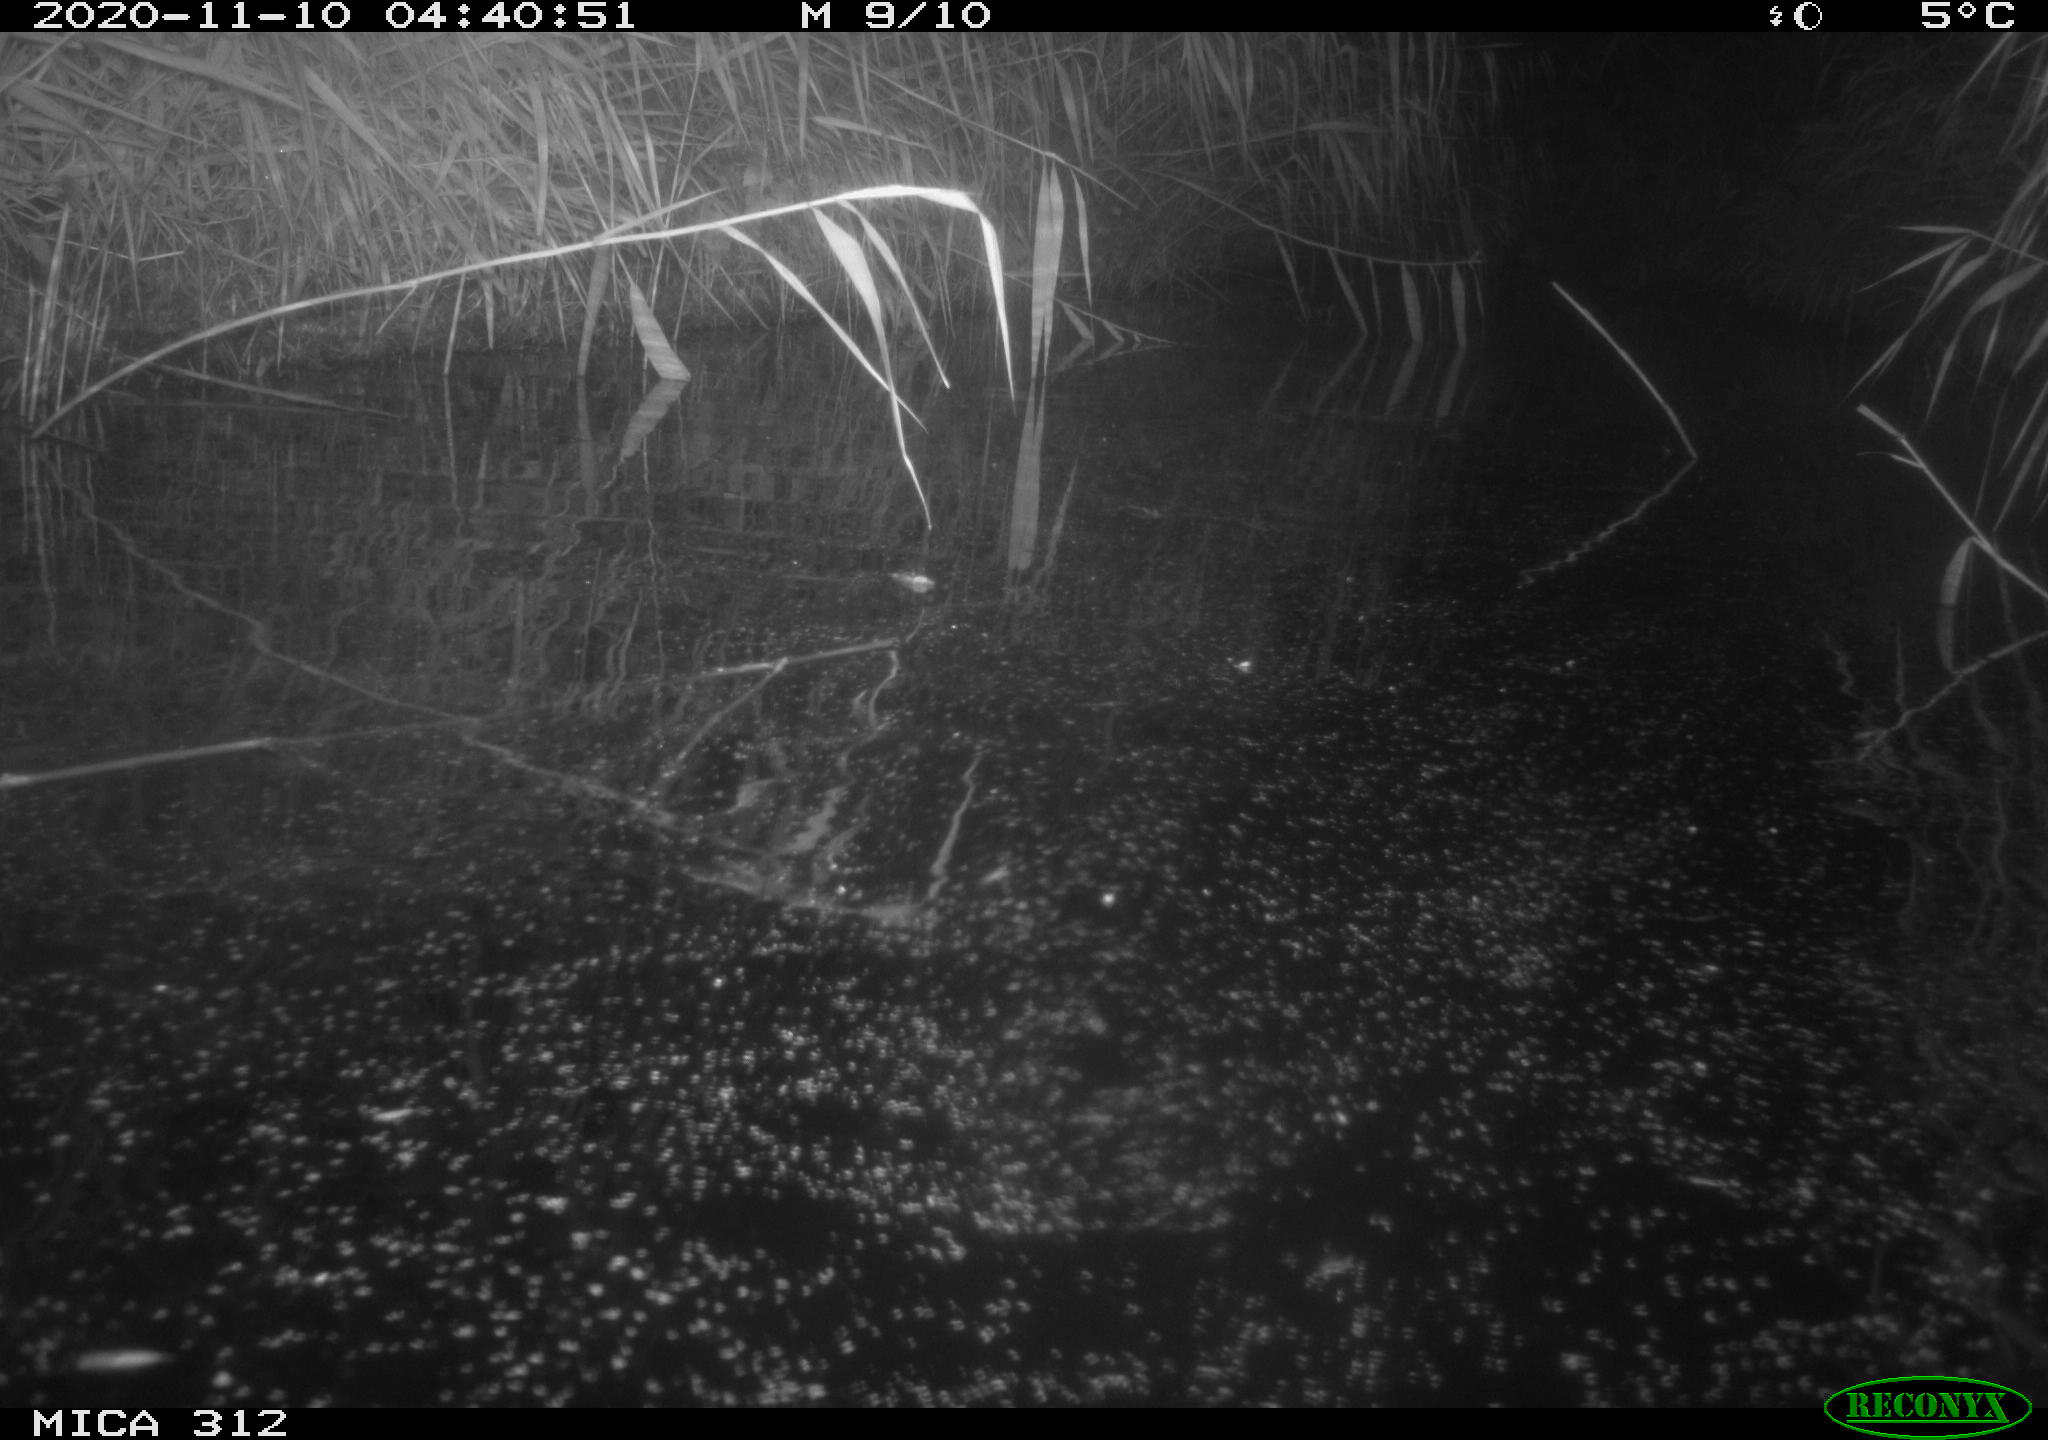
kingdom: Animalia
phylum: Chordata
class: Mammalia
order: Rodentia
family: Muridae
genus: Rattus
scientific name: Rattus norvegicus
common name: Brown rat
